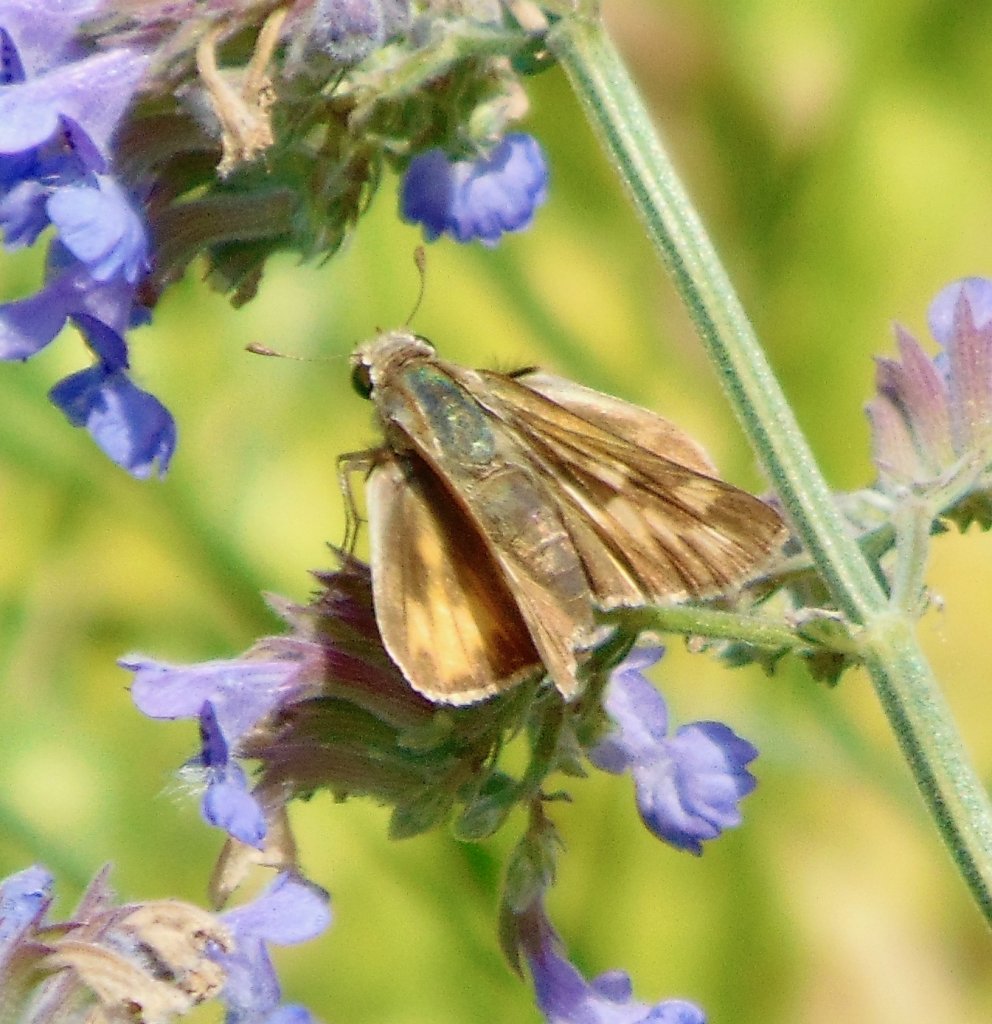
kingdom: Animalia
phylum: Arthropoda
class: Insecta
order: Lepidoptera
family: Hesperiidae
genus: Hylephila
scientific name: Hylephila phyleus
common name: Fiery Skipper
